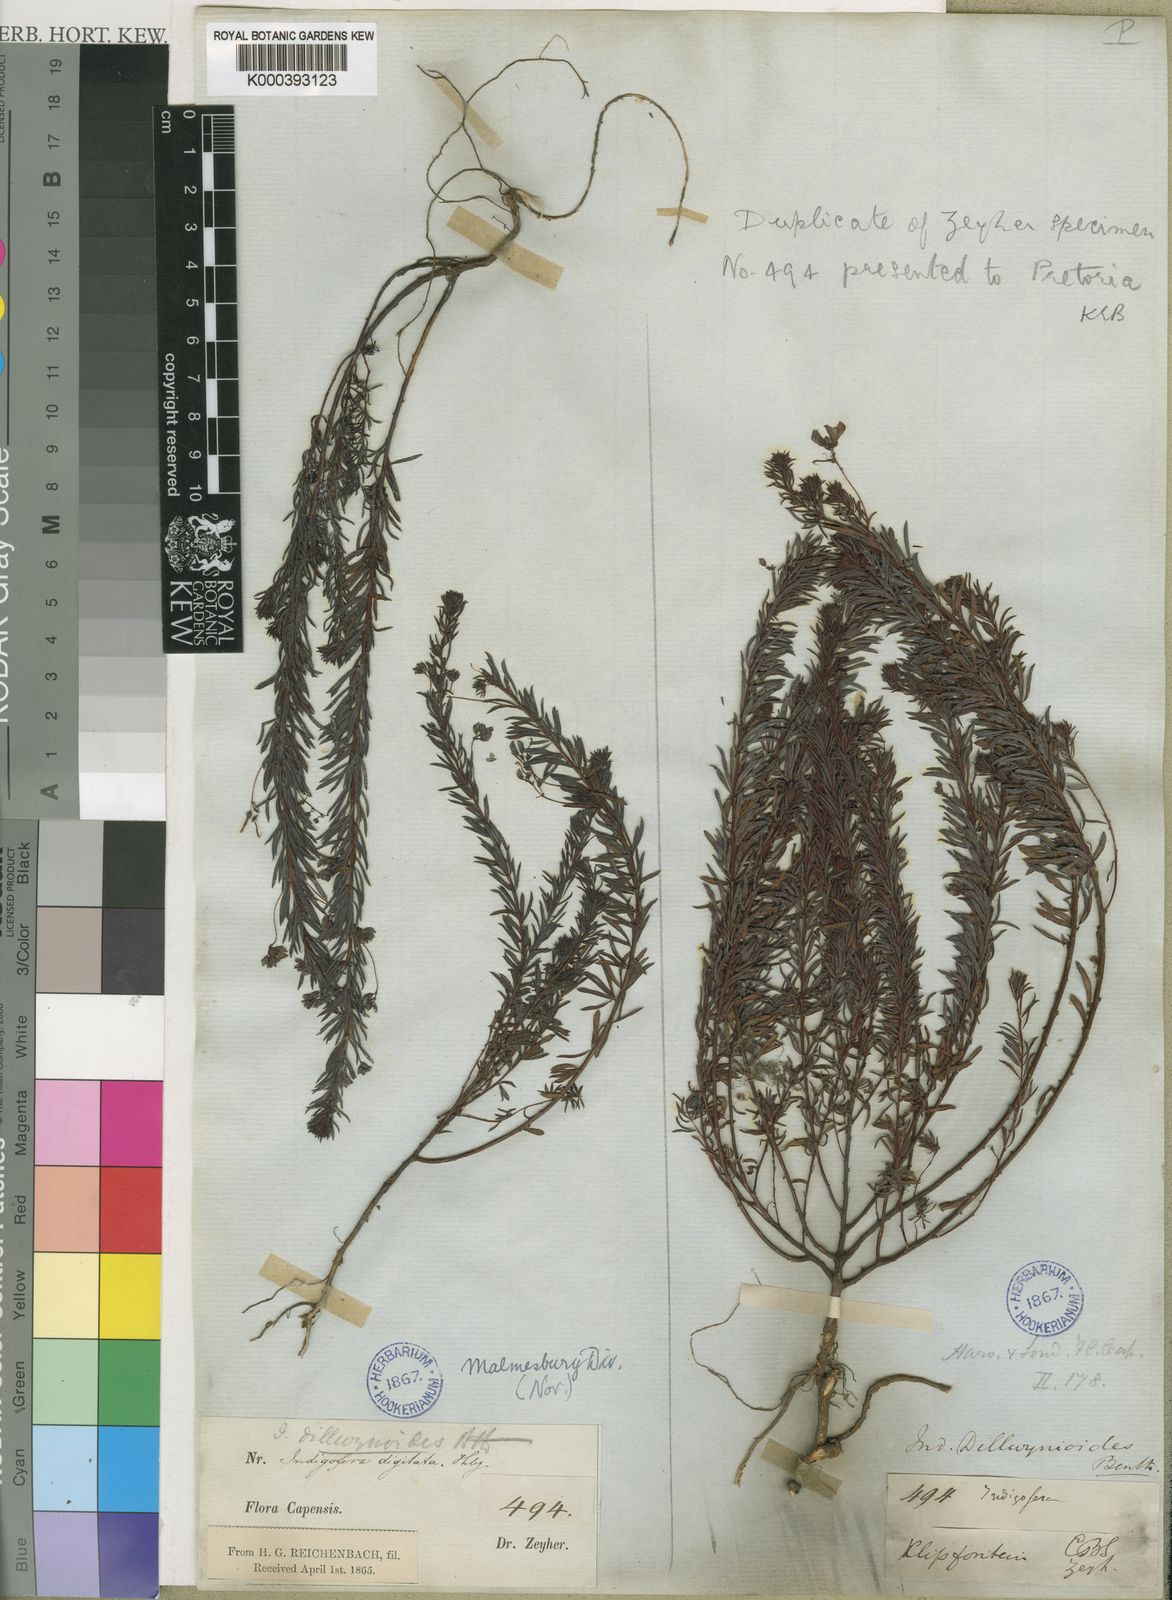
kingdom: Plantae
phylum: Tracheophyta
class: Magnoliopsida
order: Fabales
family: Fabaceae
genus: Indigofera
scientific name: Indigofera dillwynioides
